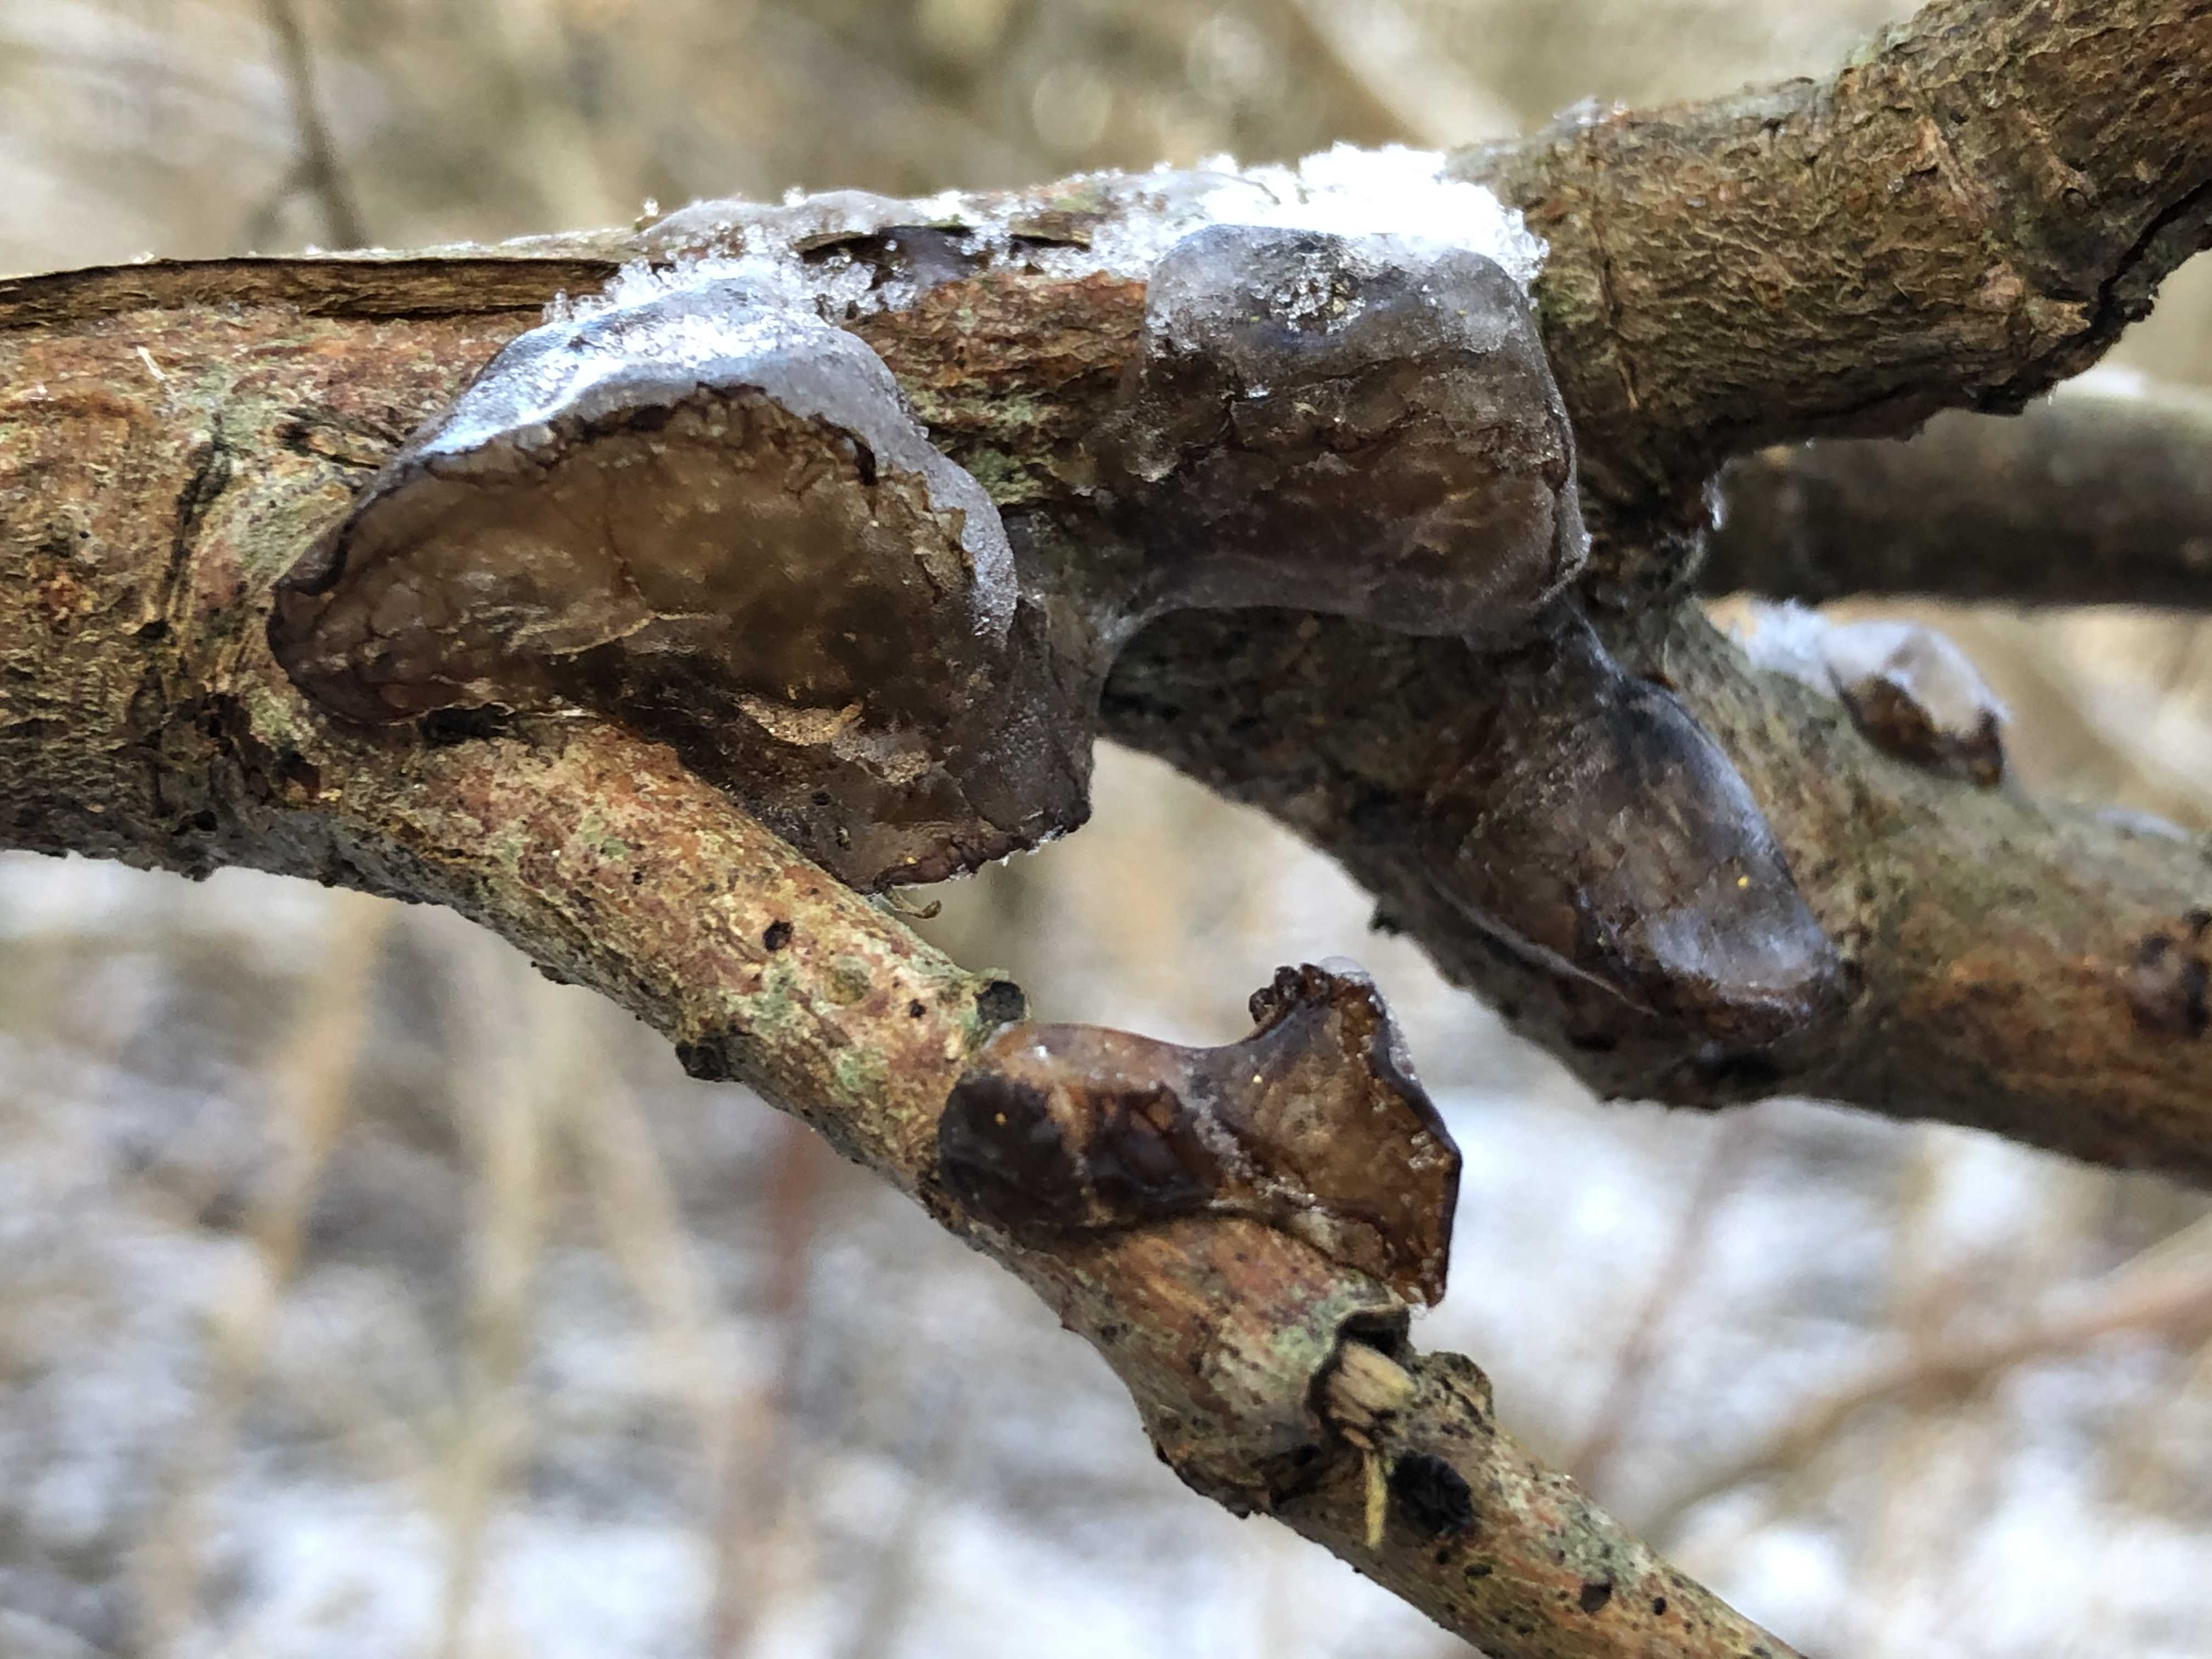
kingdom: Fungi
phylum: Basidiomycota
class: Agaricomycetes
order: Auriculariales
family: Auriculariaceae
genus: Exidia
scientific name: Exidia recisa
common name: pile-bævretop
